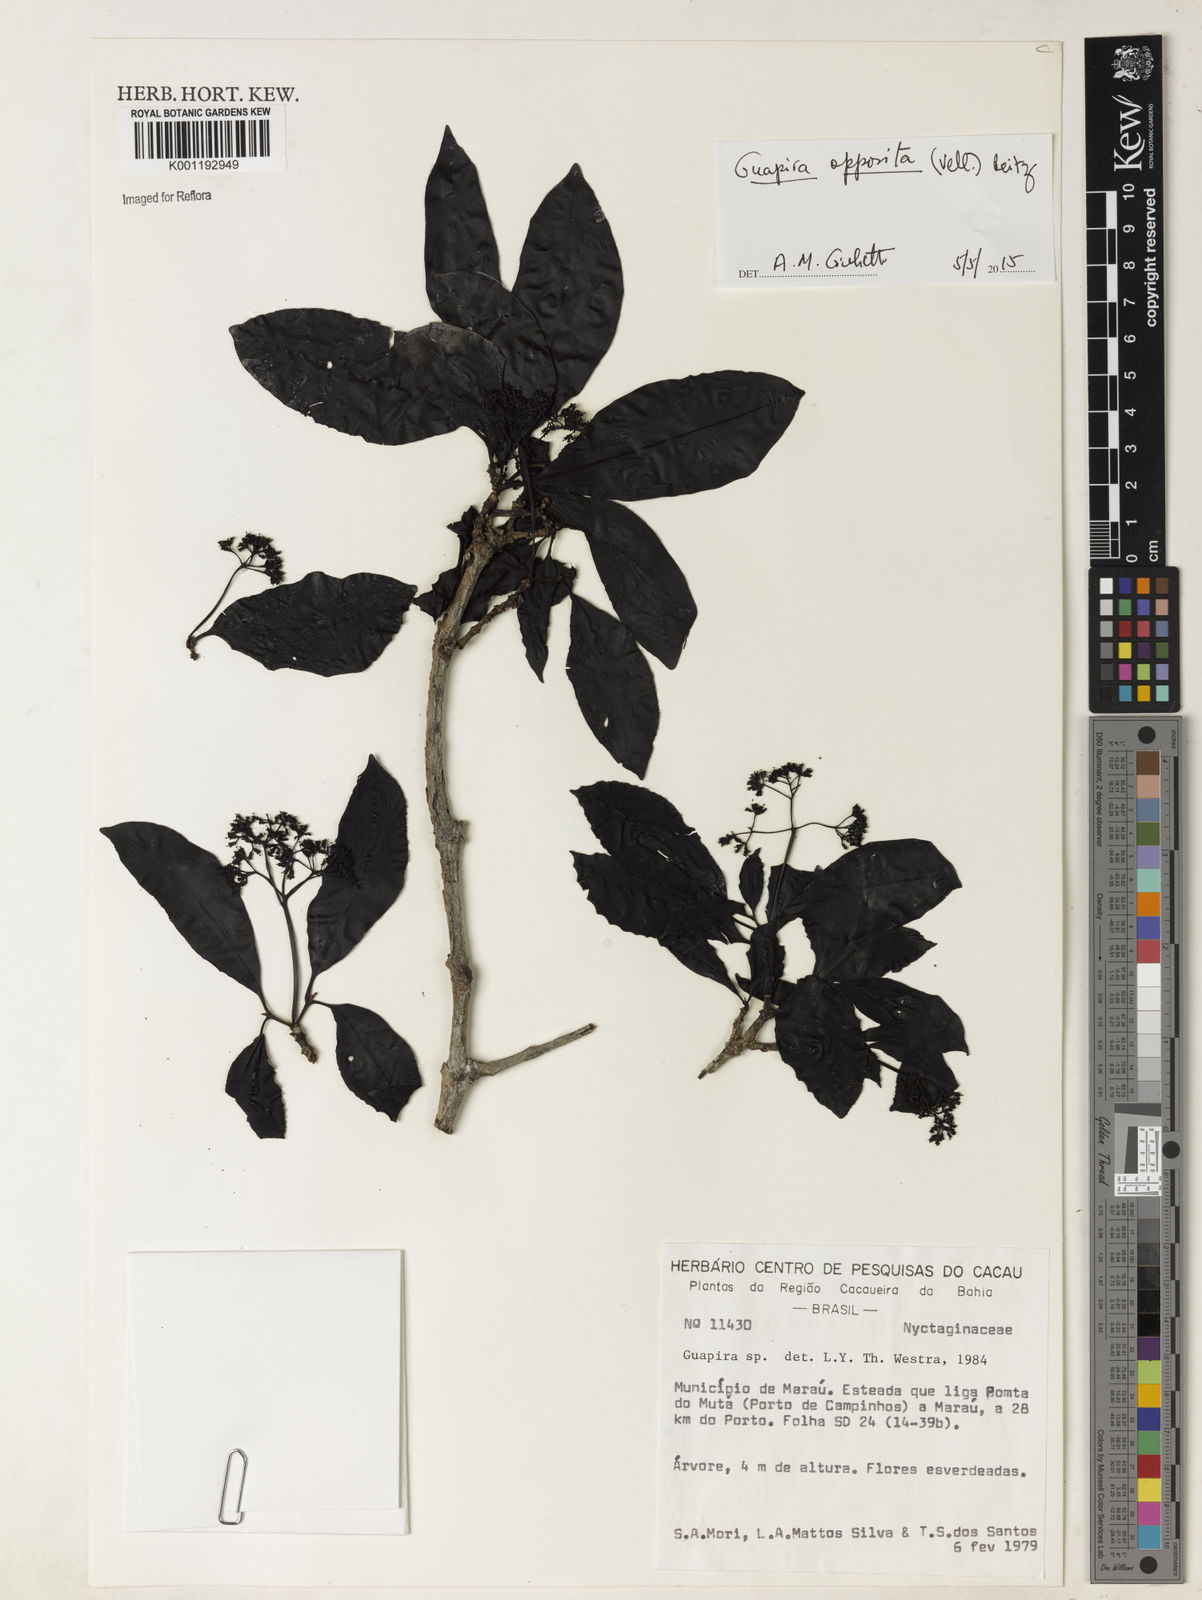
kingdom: Plantae
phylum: Tracheophyta
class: Magnoliopsida
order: Caryophyllales
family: Nyctaginaceae
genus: Guapira
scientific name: Guapira opposita
